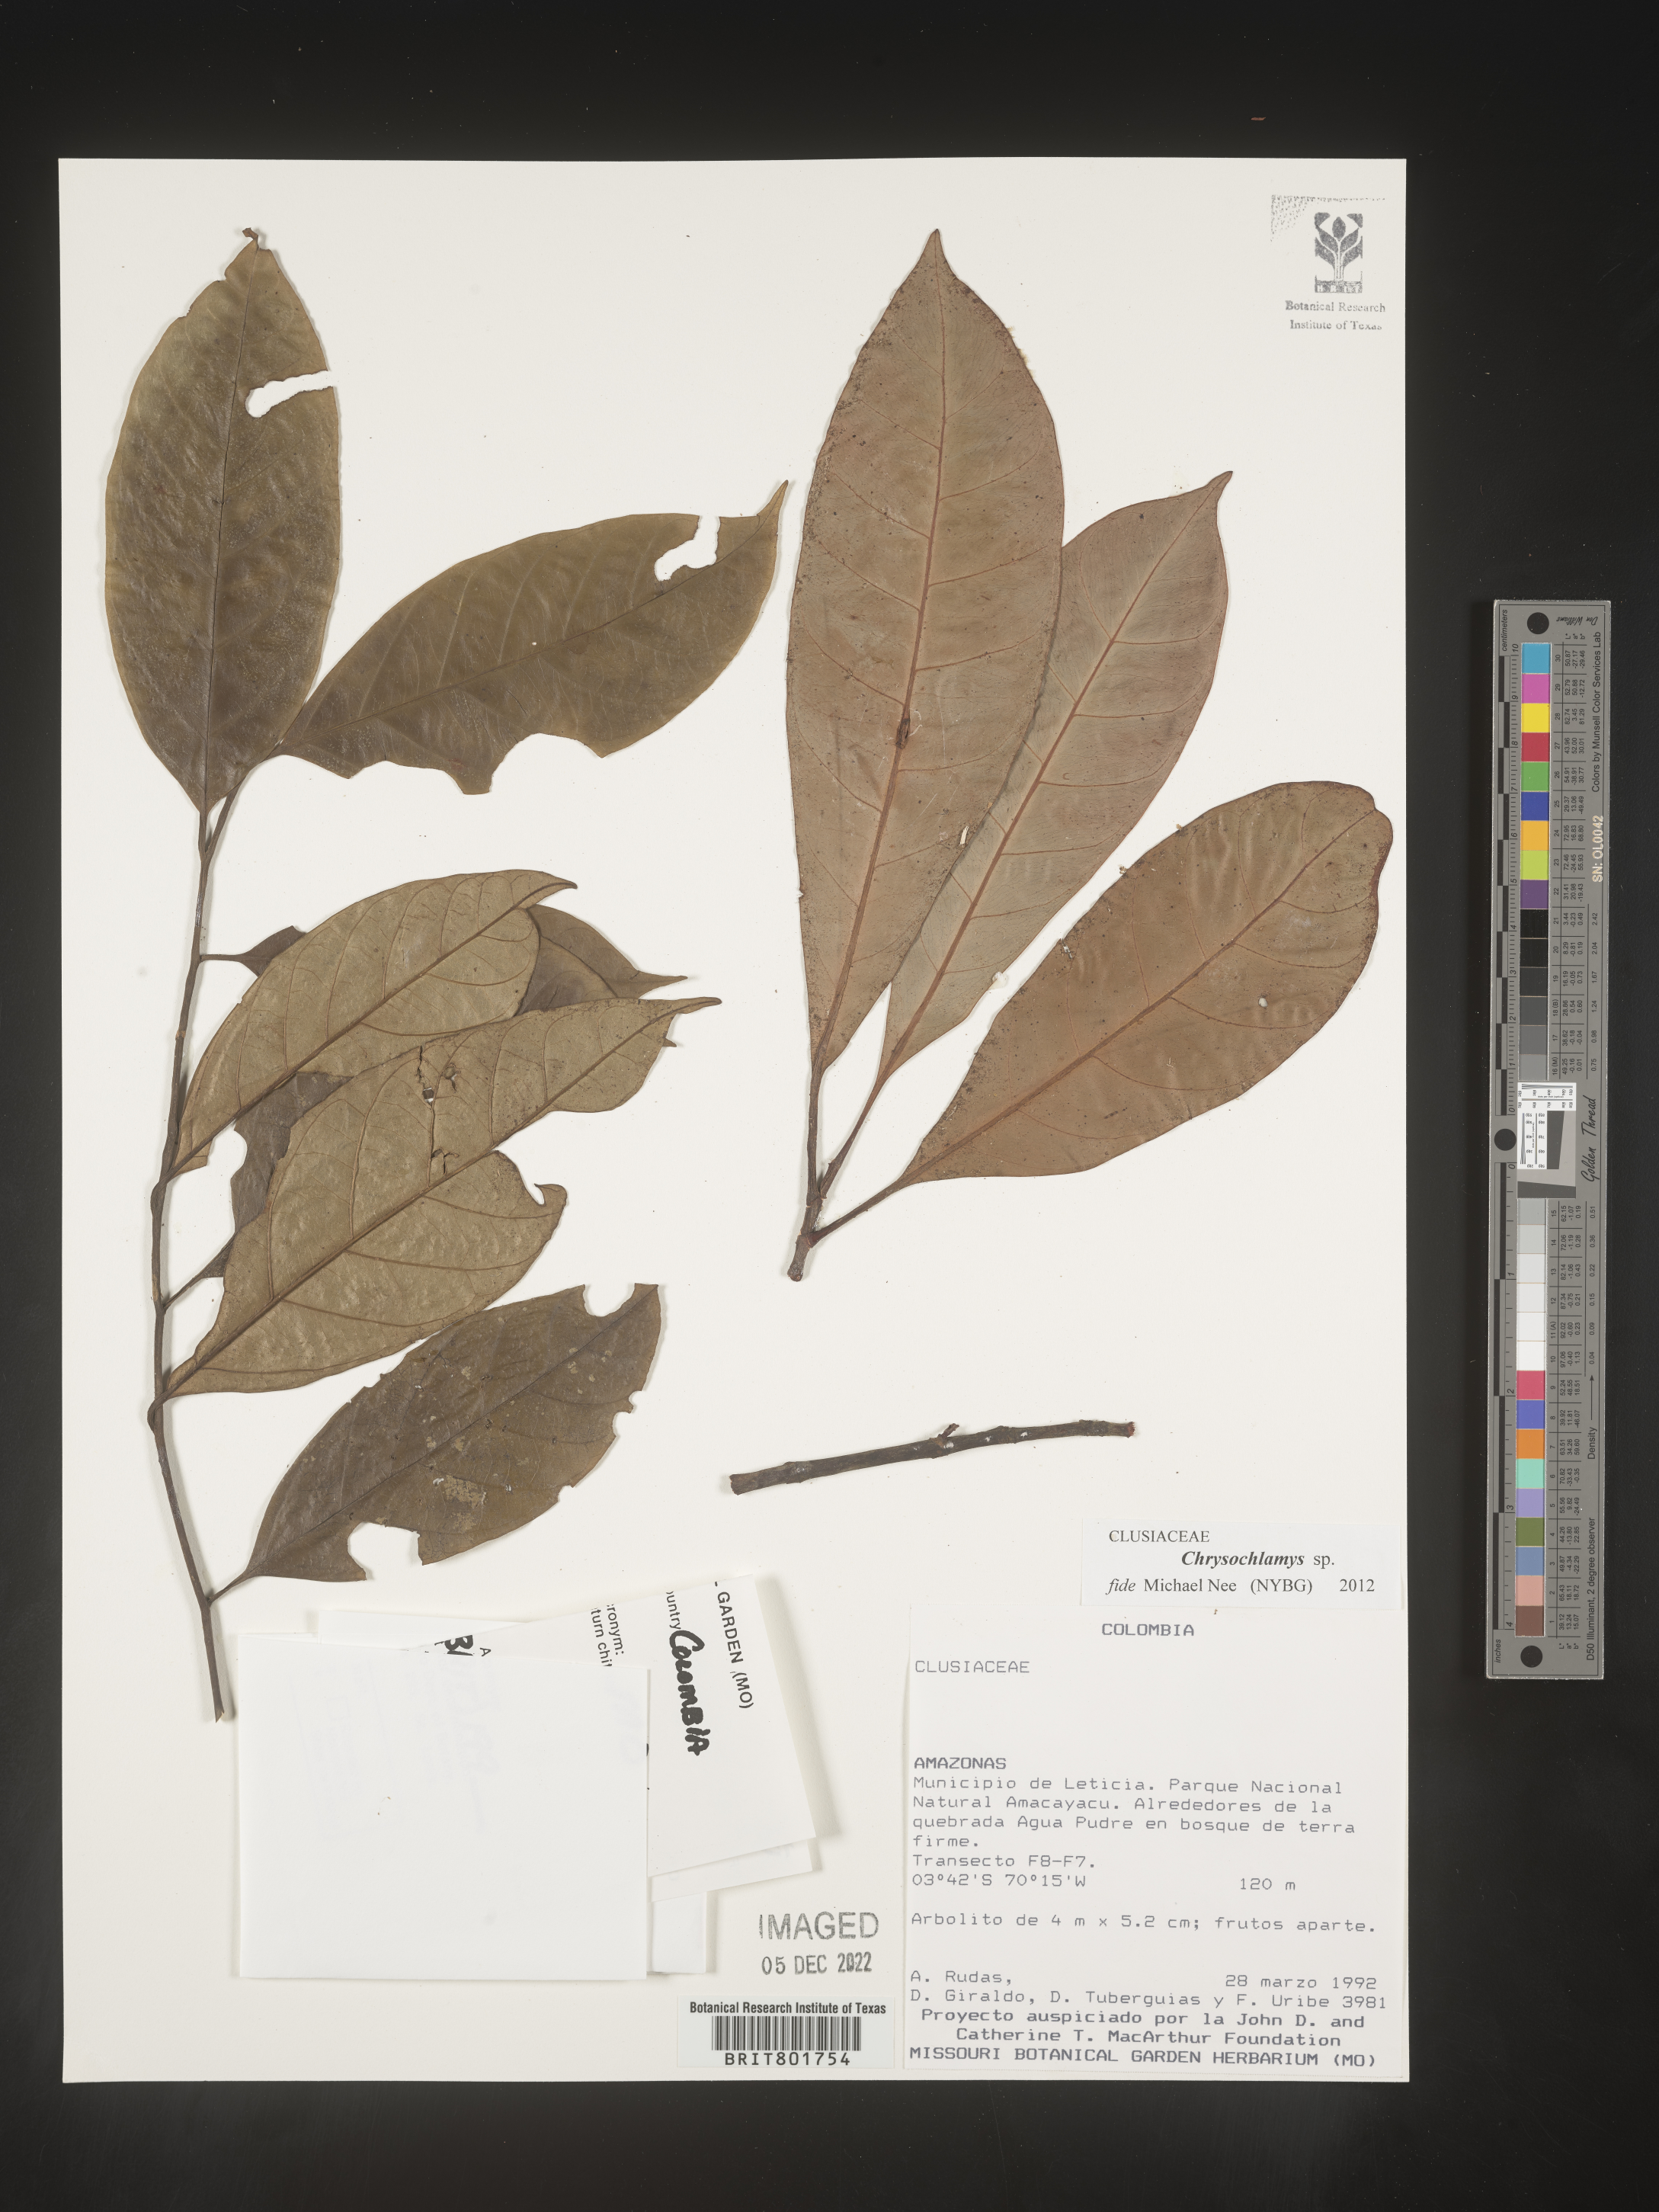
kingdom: Plantae
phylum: Tracheophyta
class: Magnoliopsida
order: Malpighiales
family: Clusiaceae
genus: Chrysochlamys
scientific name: Chrysochlamys
